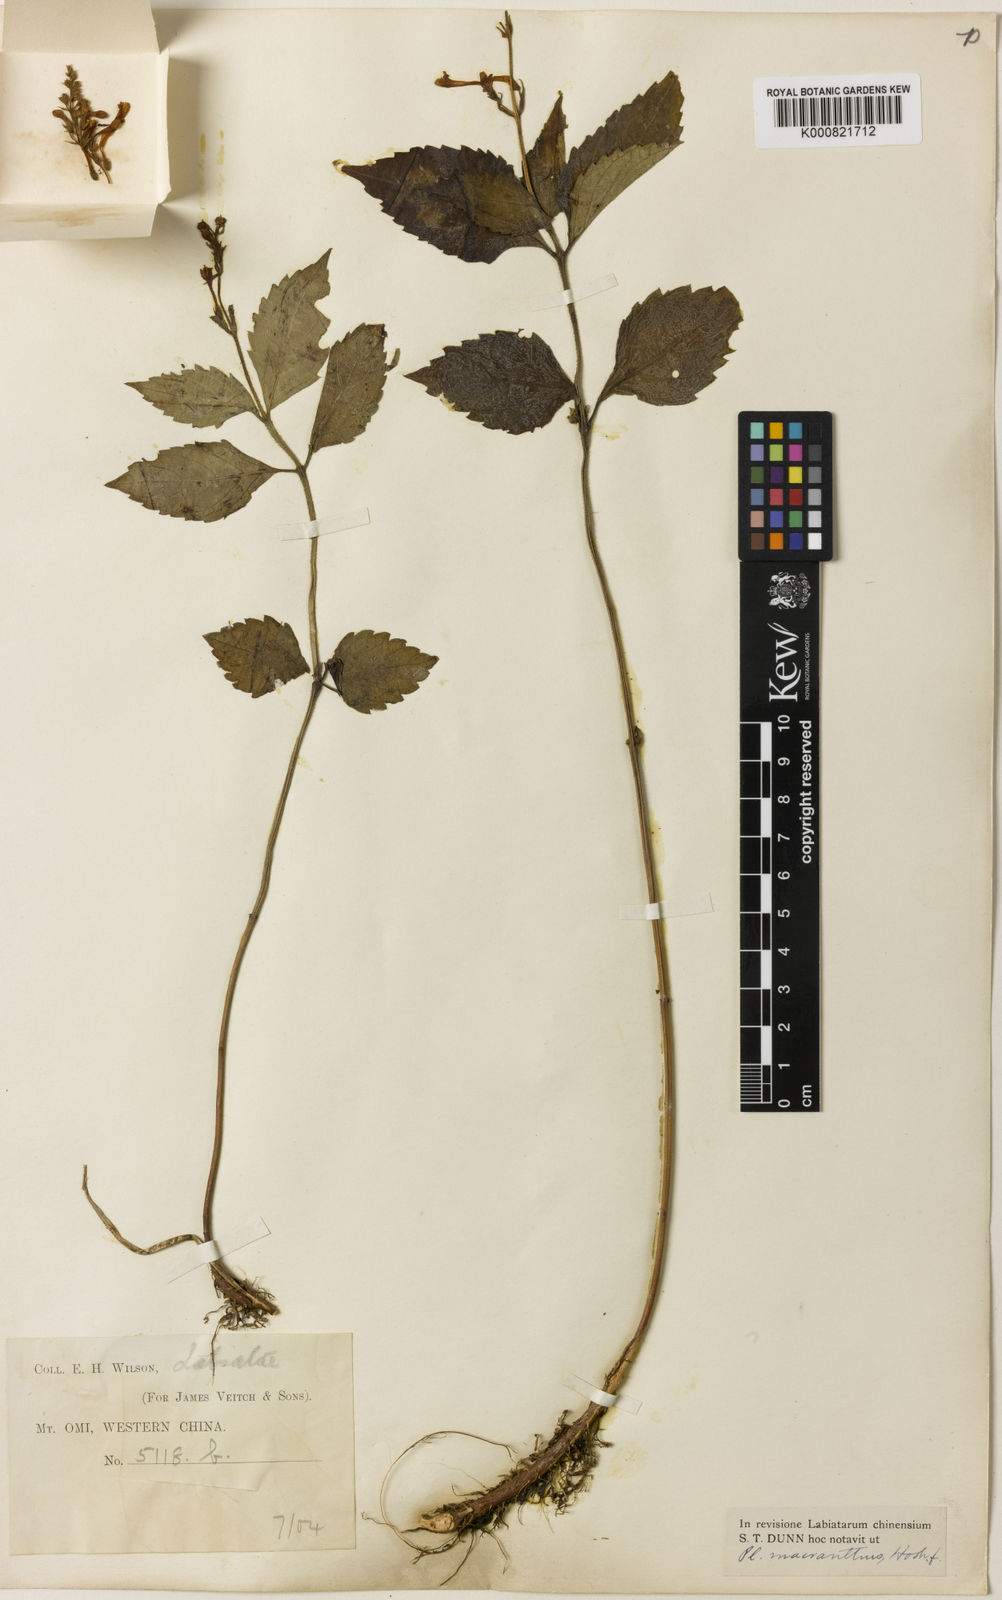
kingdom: Plantae
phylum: Tracheophyta
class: Magnoliopsida
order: Lamiales
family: Lamiaceae
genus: Isodon
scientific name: Isodon
